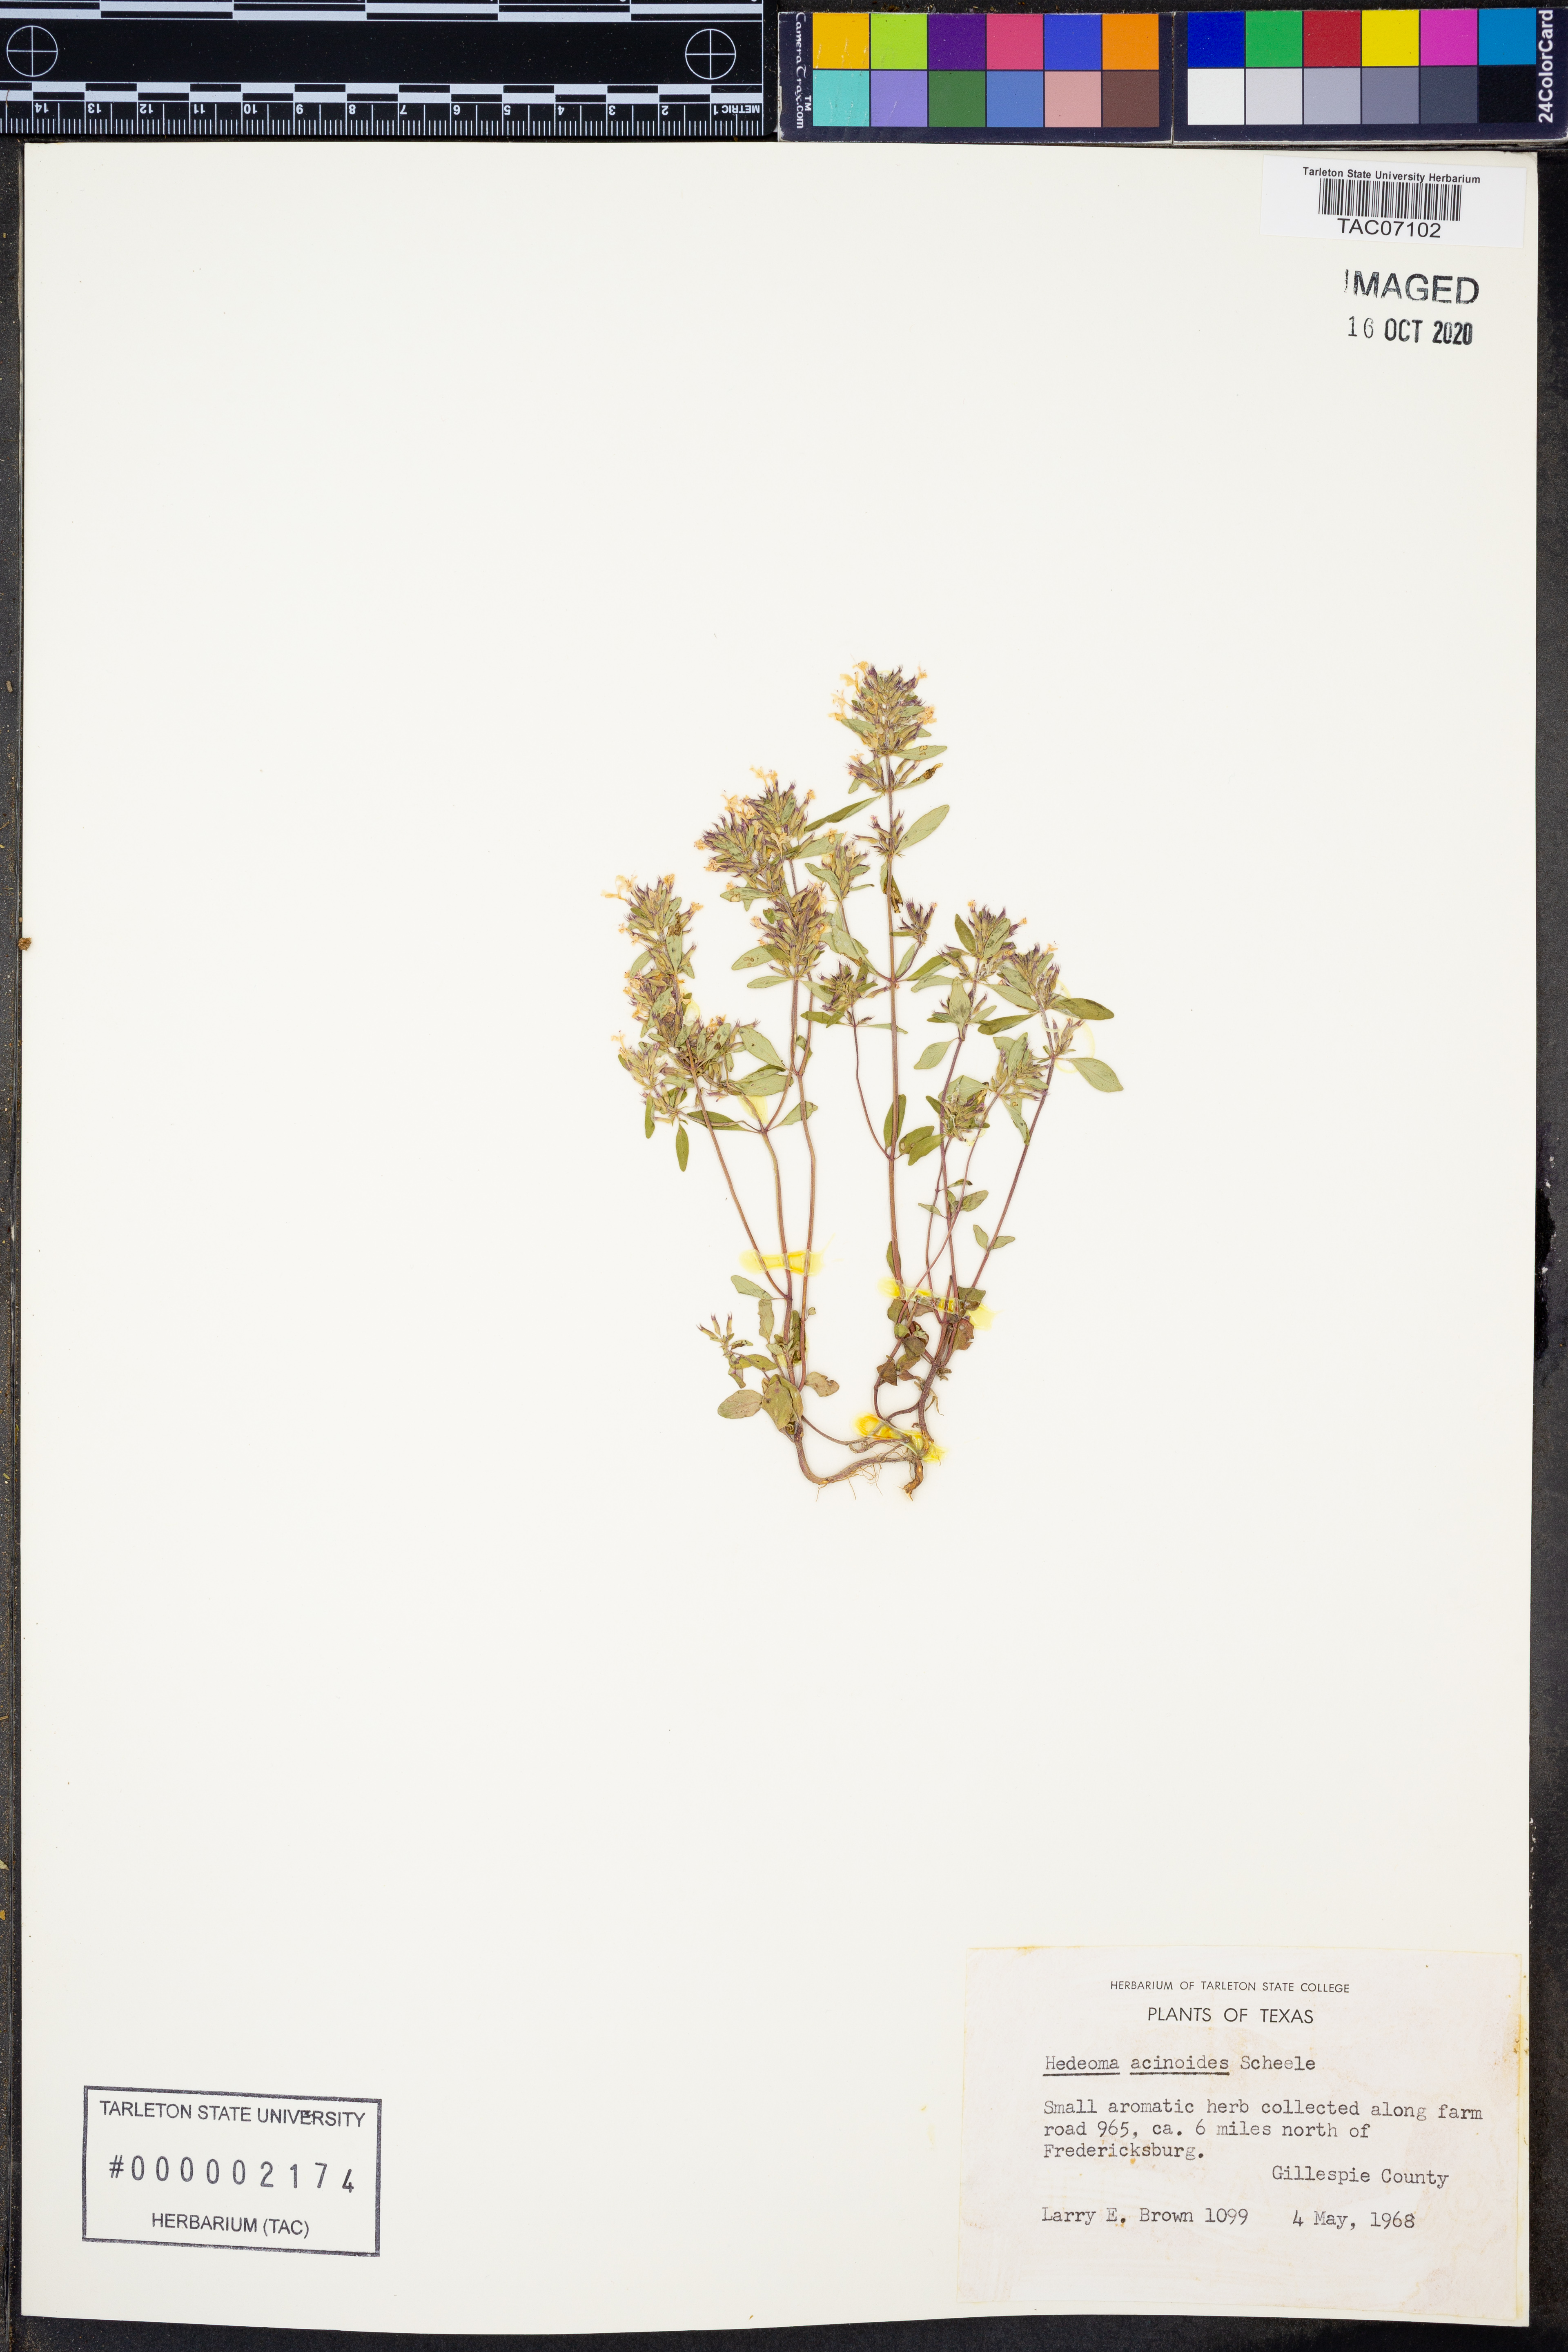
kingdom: Plantae
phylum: Tracheophyta
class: Magnoliopsida
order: Lamiales
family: Lamiaceae
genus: Hedeoma
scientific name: Hedeoma acinoides
